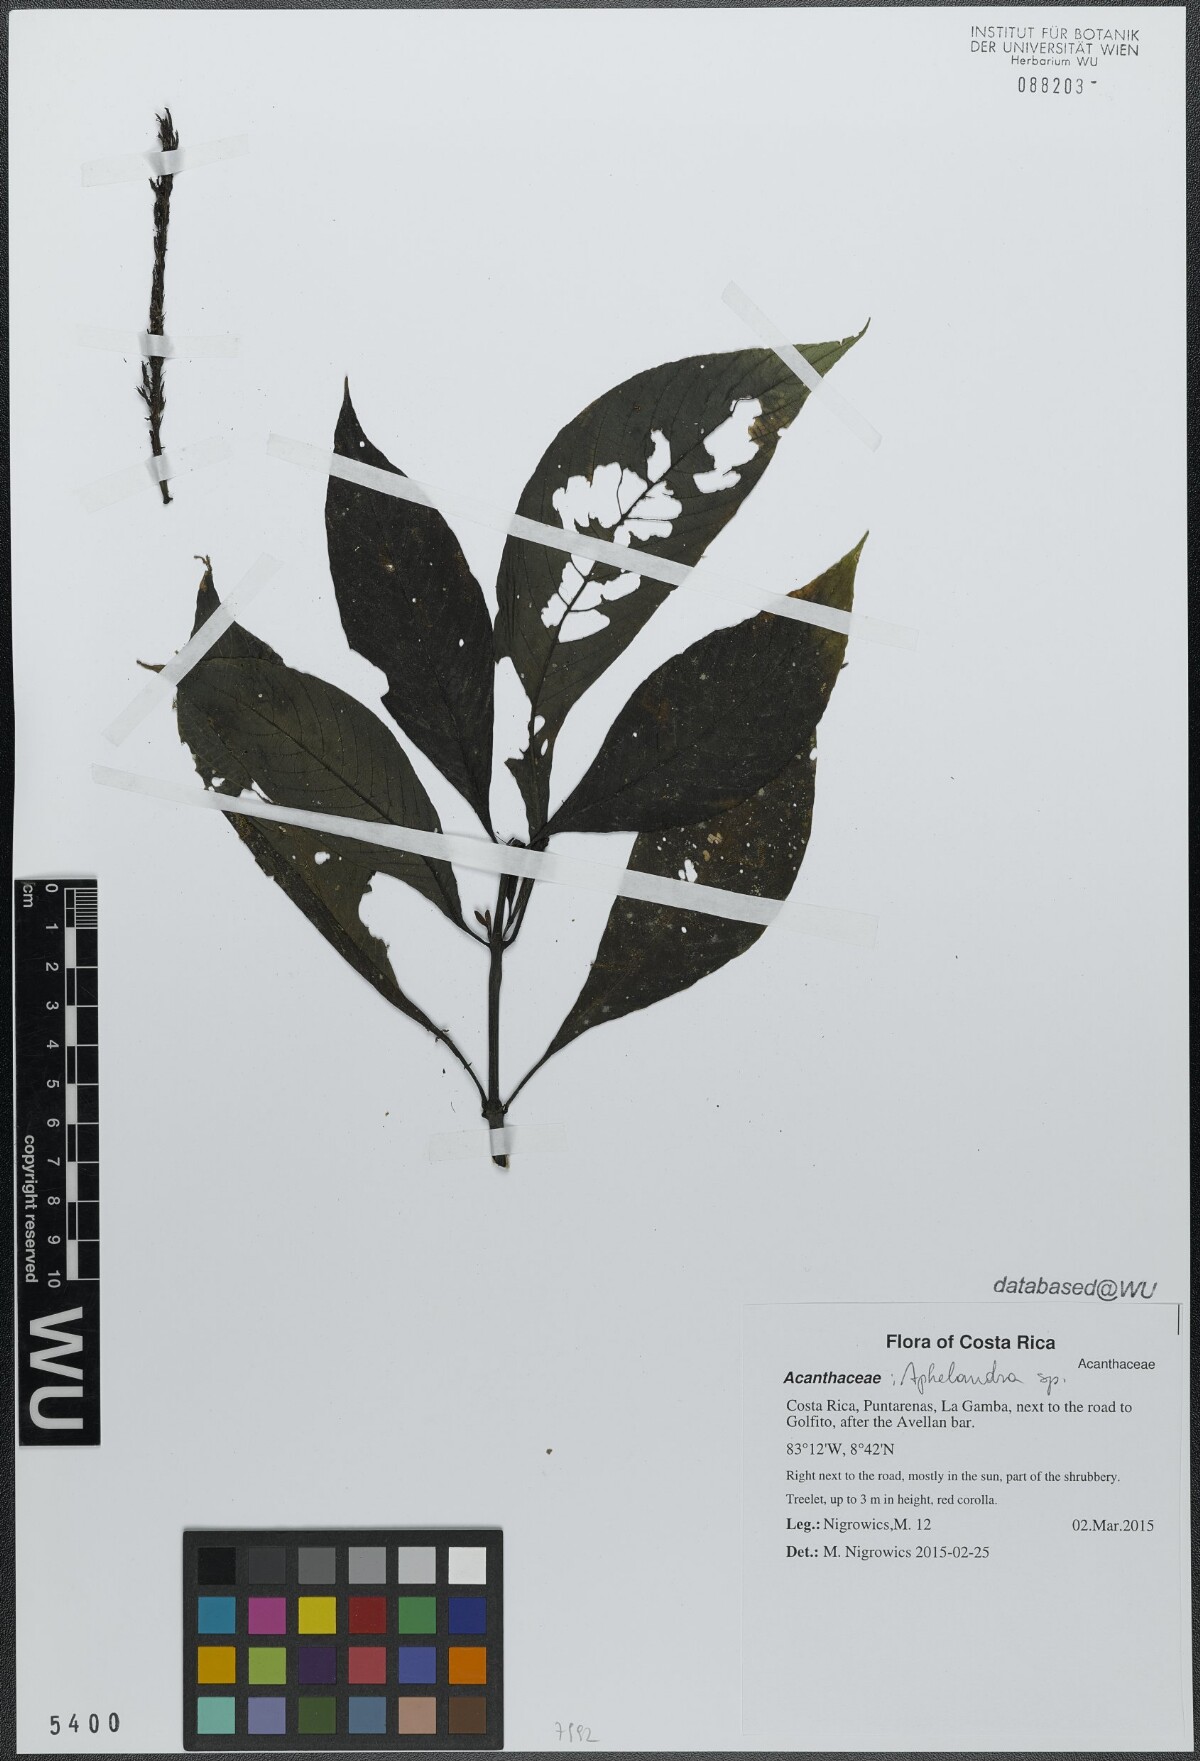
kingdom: Plantae
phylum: Tracheophyta
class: Magnoliopsida
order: Lamiales
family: Acanthaceae
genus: Stenostephanus
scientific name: Stenostephanus leiorhachis
